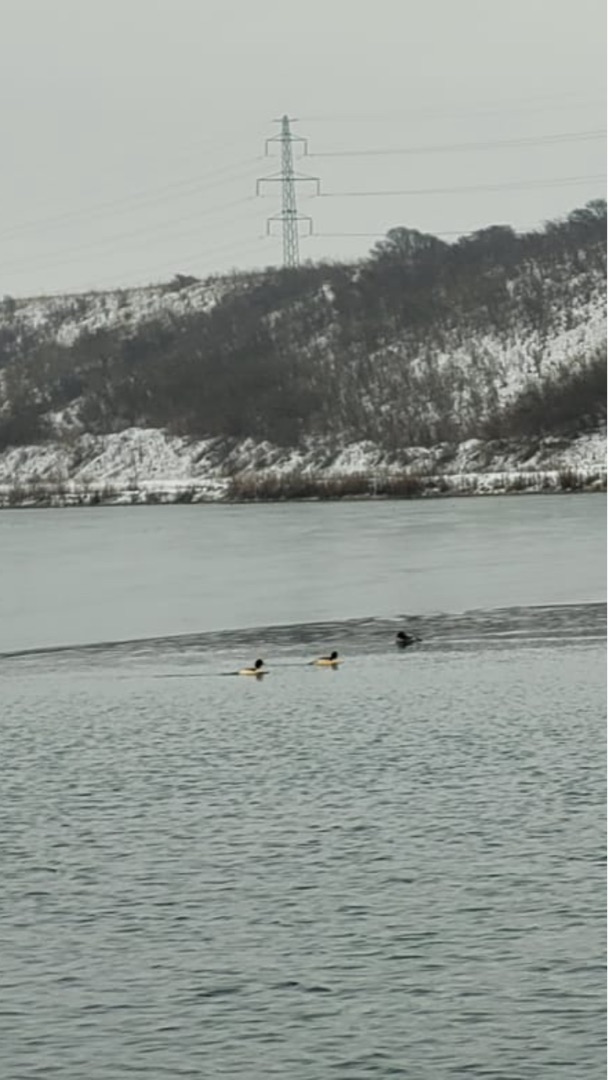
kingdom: Animalia
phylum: Chordata
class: Aves
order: Anseriformes
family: Anatidae
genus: Mergus
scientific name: Mergus merganser
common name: Stor skallesluger
